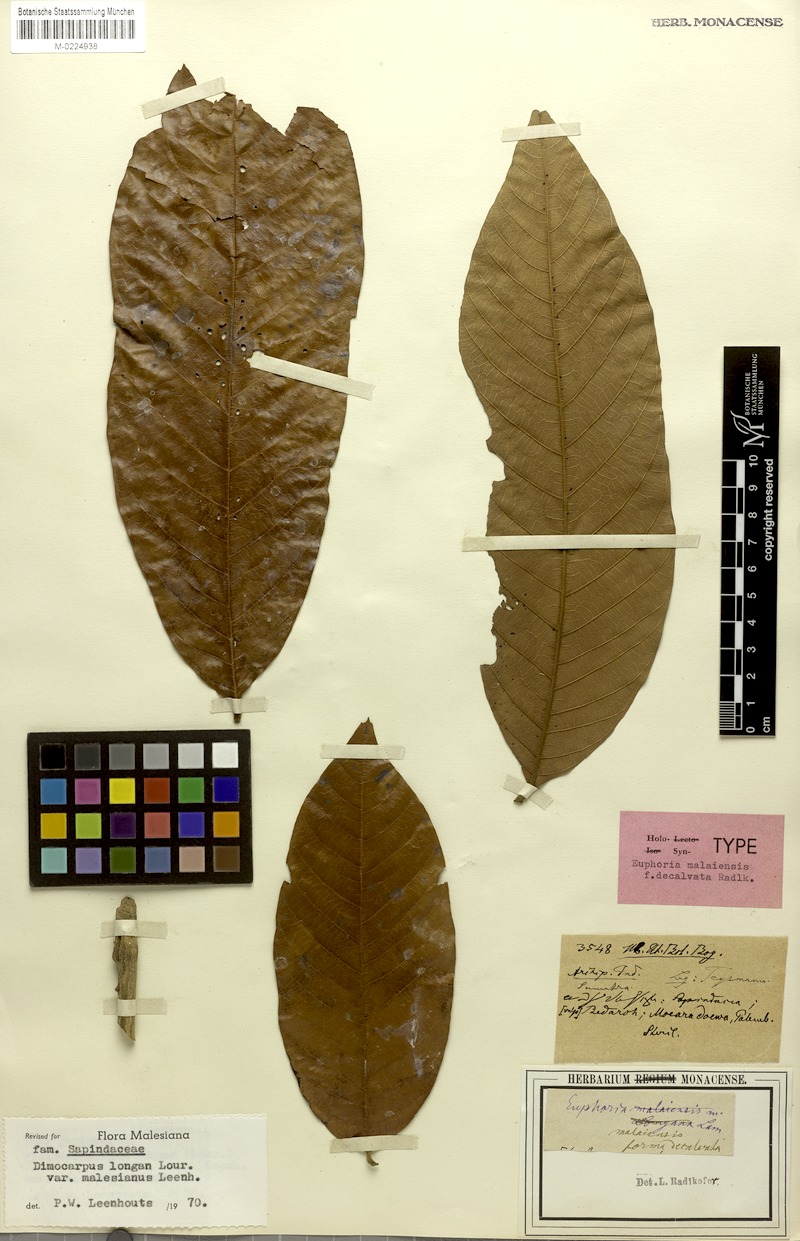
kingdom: Plantae
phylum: Tracheophyta
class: Magnoliopsida
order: Sapindales
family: Sapindaceae
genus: Dimocarpus
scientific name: Dimocarpus malesianus
